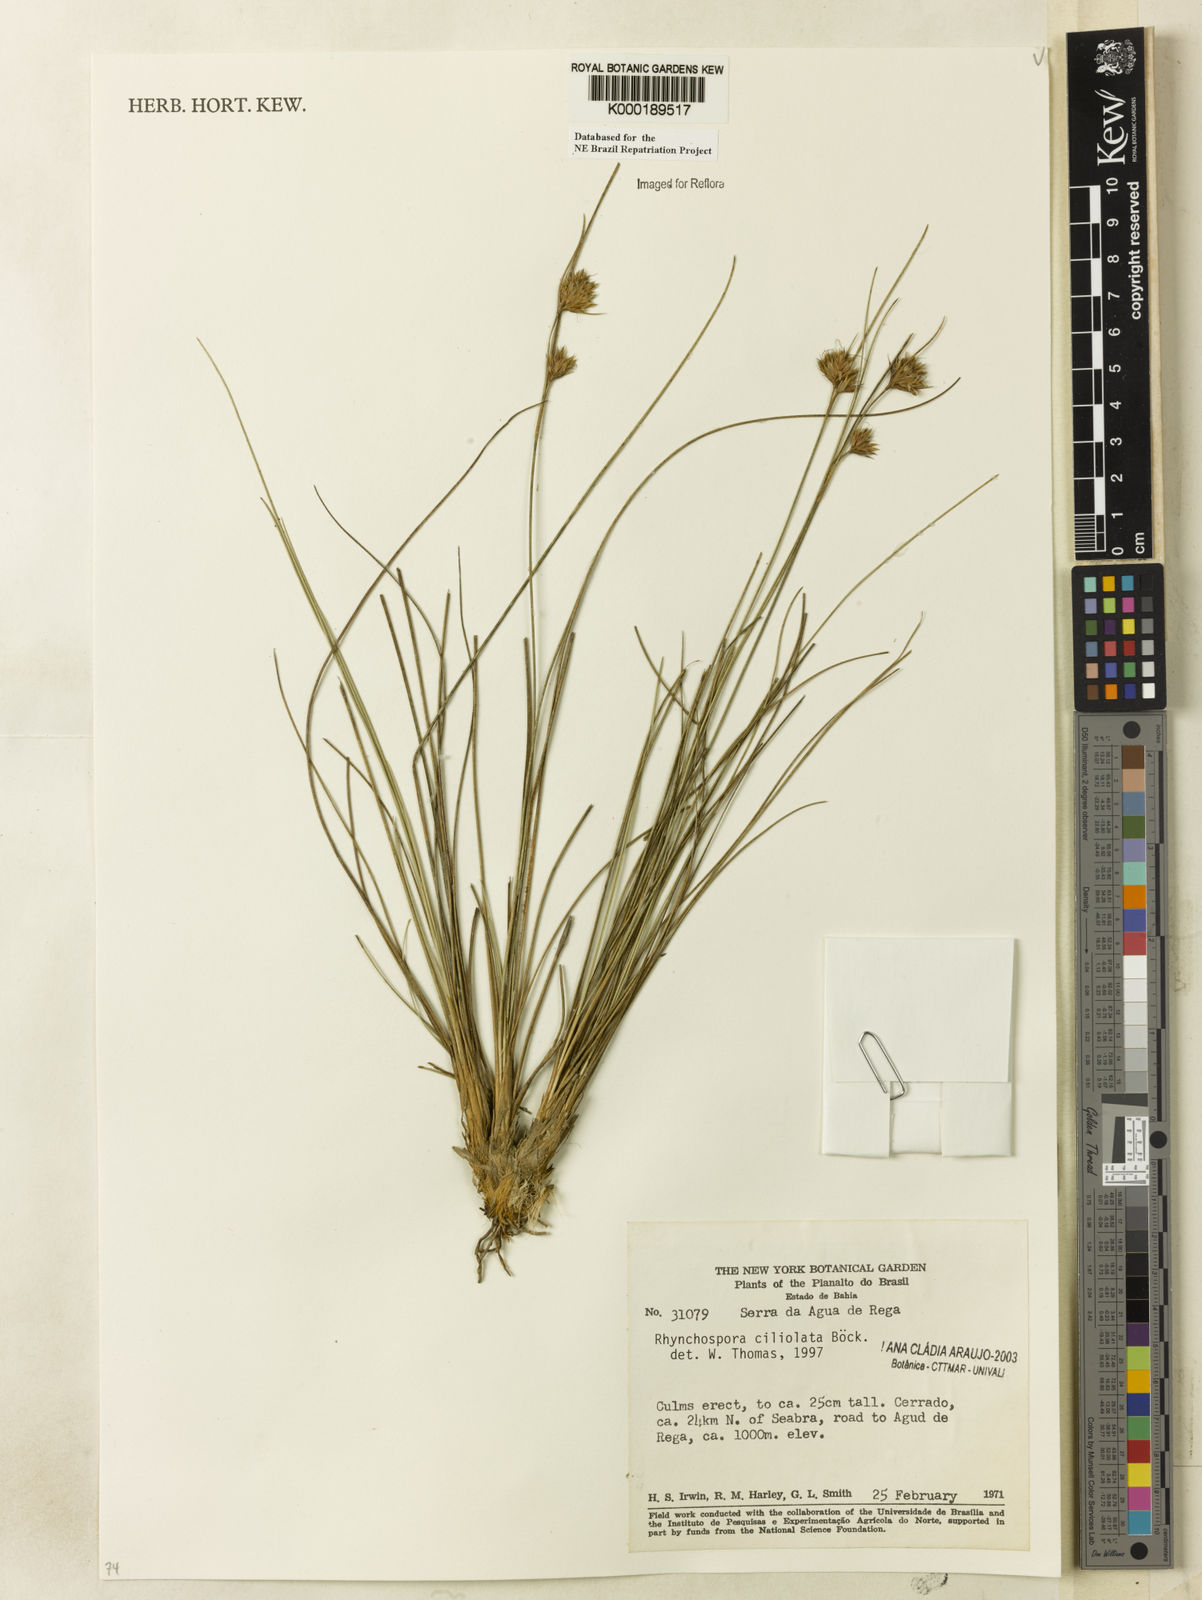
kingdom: Plantae
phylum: Tracheophyta
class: Liliopsida
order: Poales
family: Cyperaceae
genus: Rhynchospora
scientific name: Rhynchospora ciliolata
